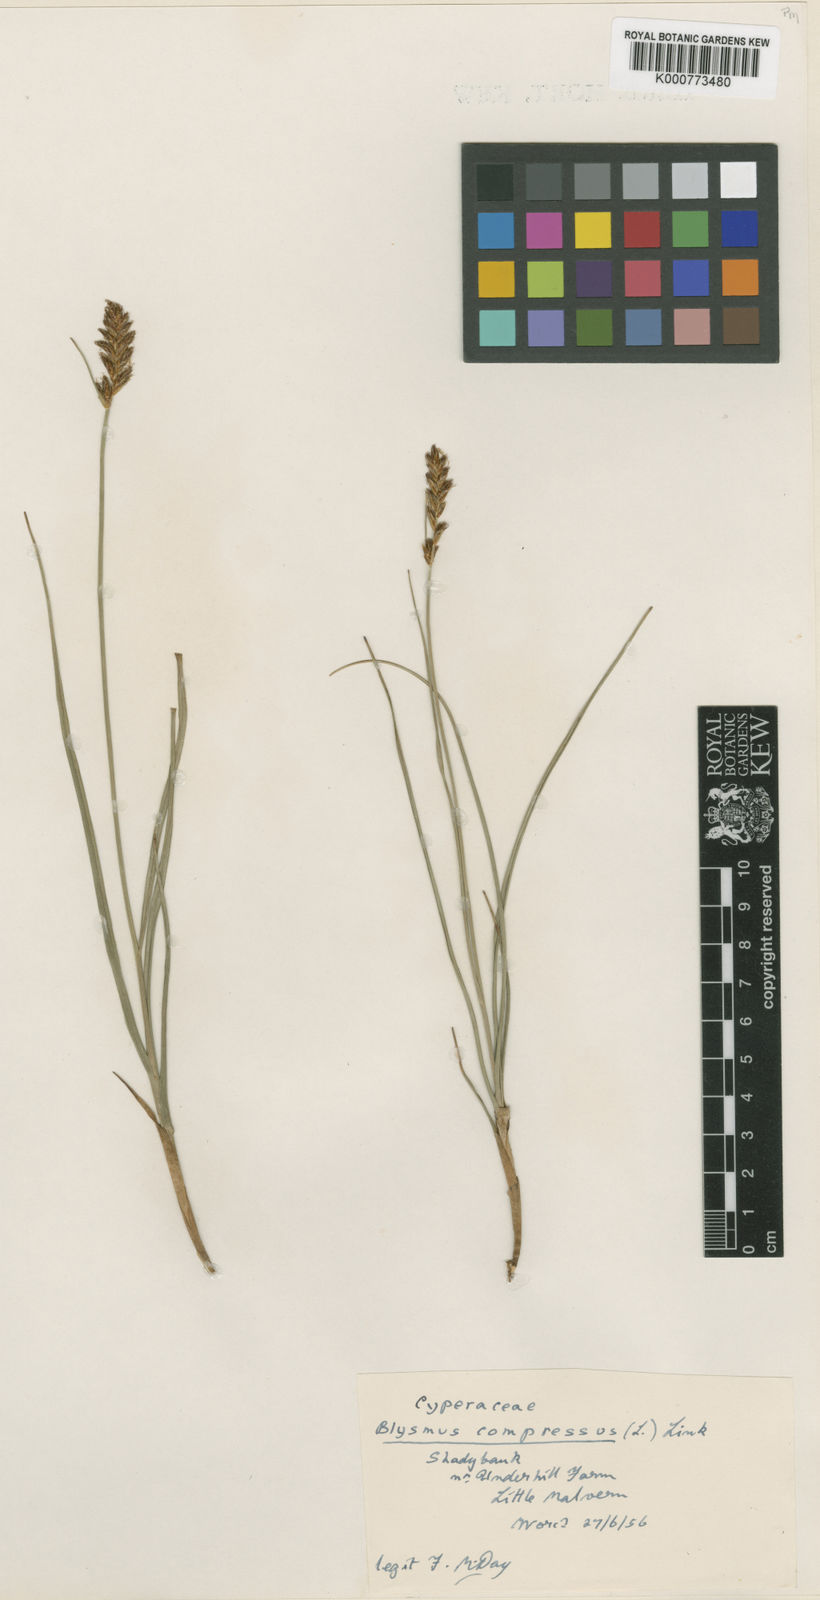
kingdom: Plantae
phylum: Tracheophyta
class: Liliopsida
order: Poales
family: Cyperaceae
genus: Blysmus
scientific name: Blysmus compressus
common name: Flat-sedge
